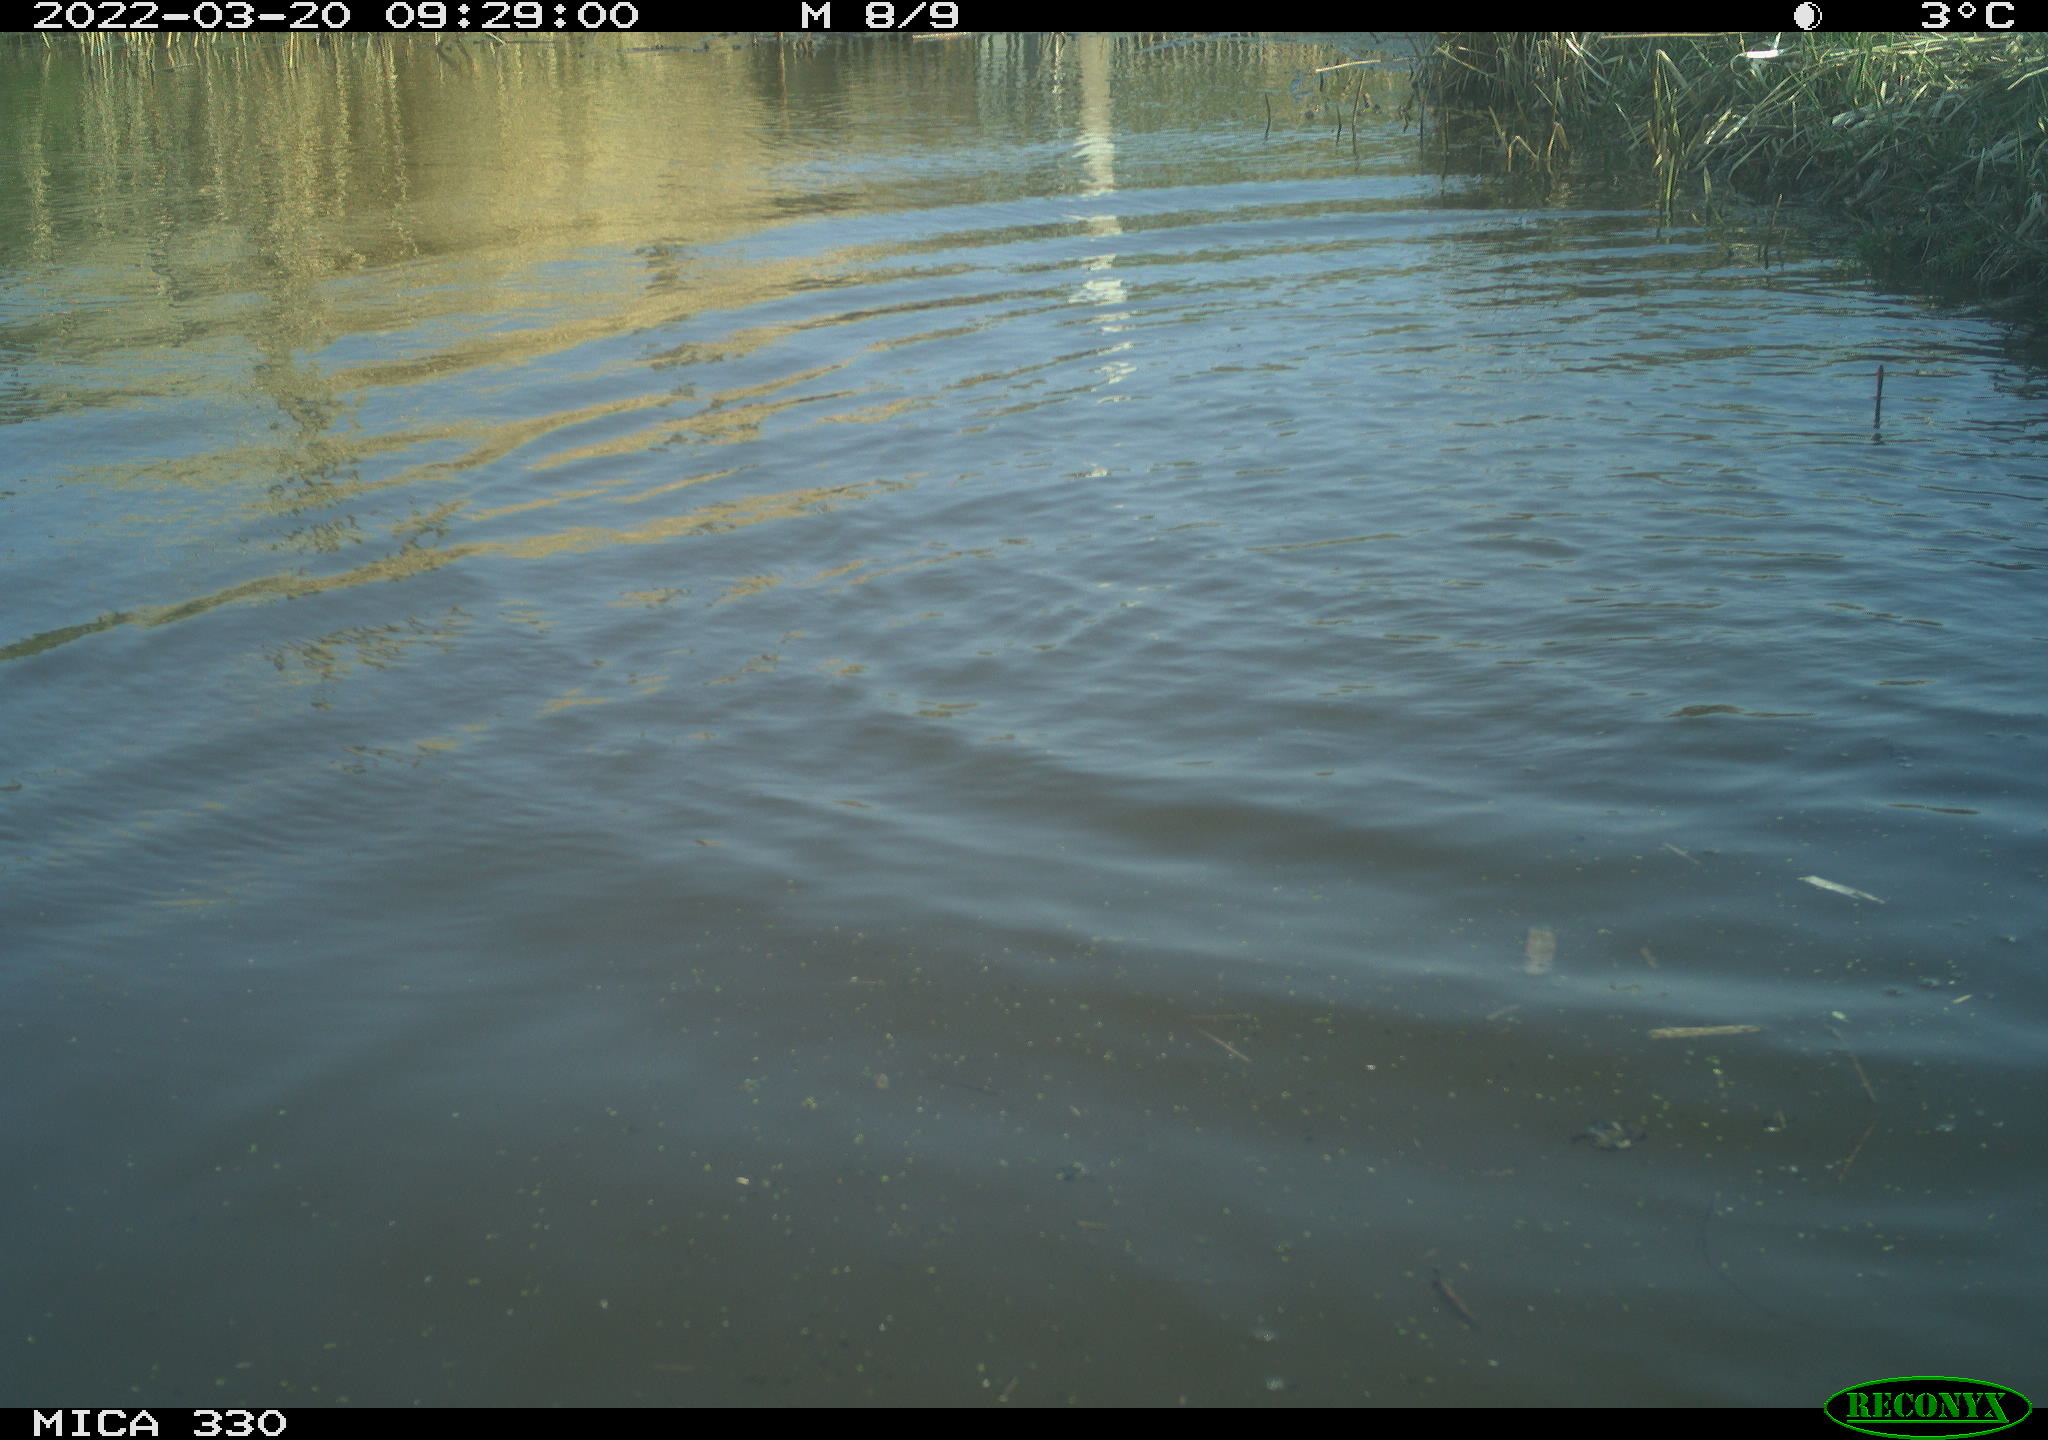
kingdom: Animalia
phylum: Chordata
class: Aves
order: Anseriformes
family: Anatidae
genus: Anas
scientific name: Anas platyrhynchos
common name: Mallard
